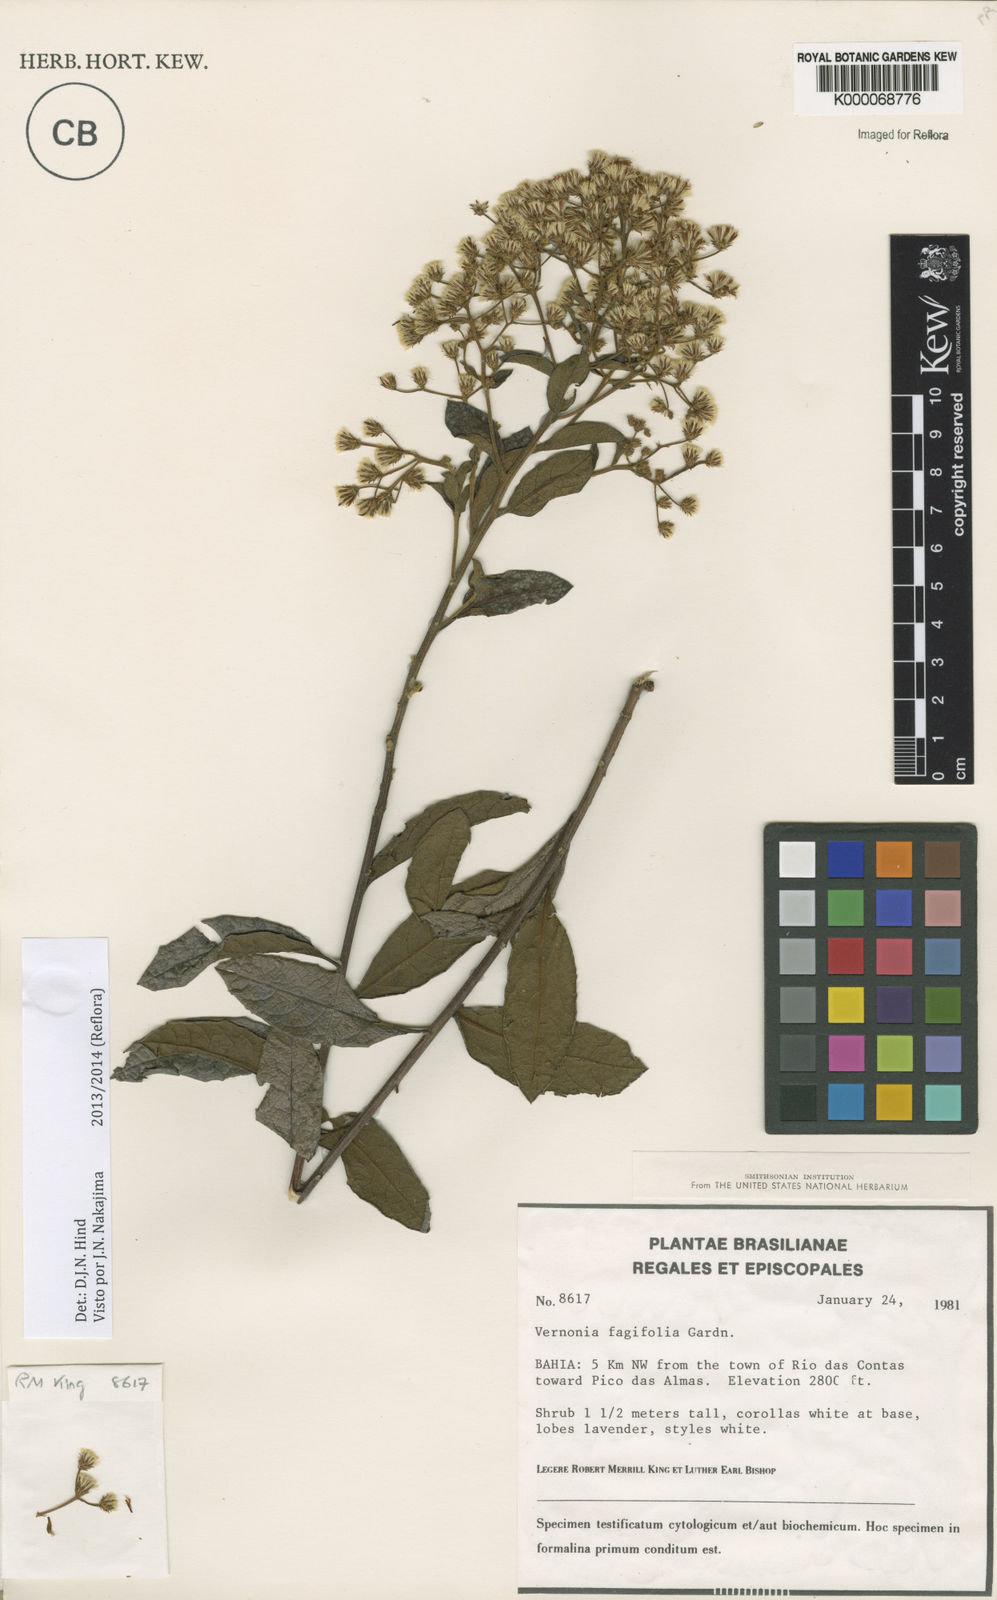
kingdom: Plantae
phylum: Tracheophyta
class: Magnoliopsida
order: Asterales
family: Asteraceae
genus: Vernonanthura
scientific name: Vernonanthura fagifolia
